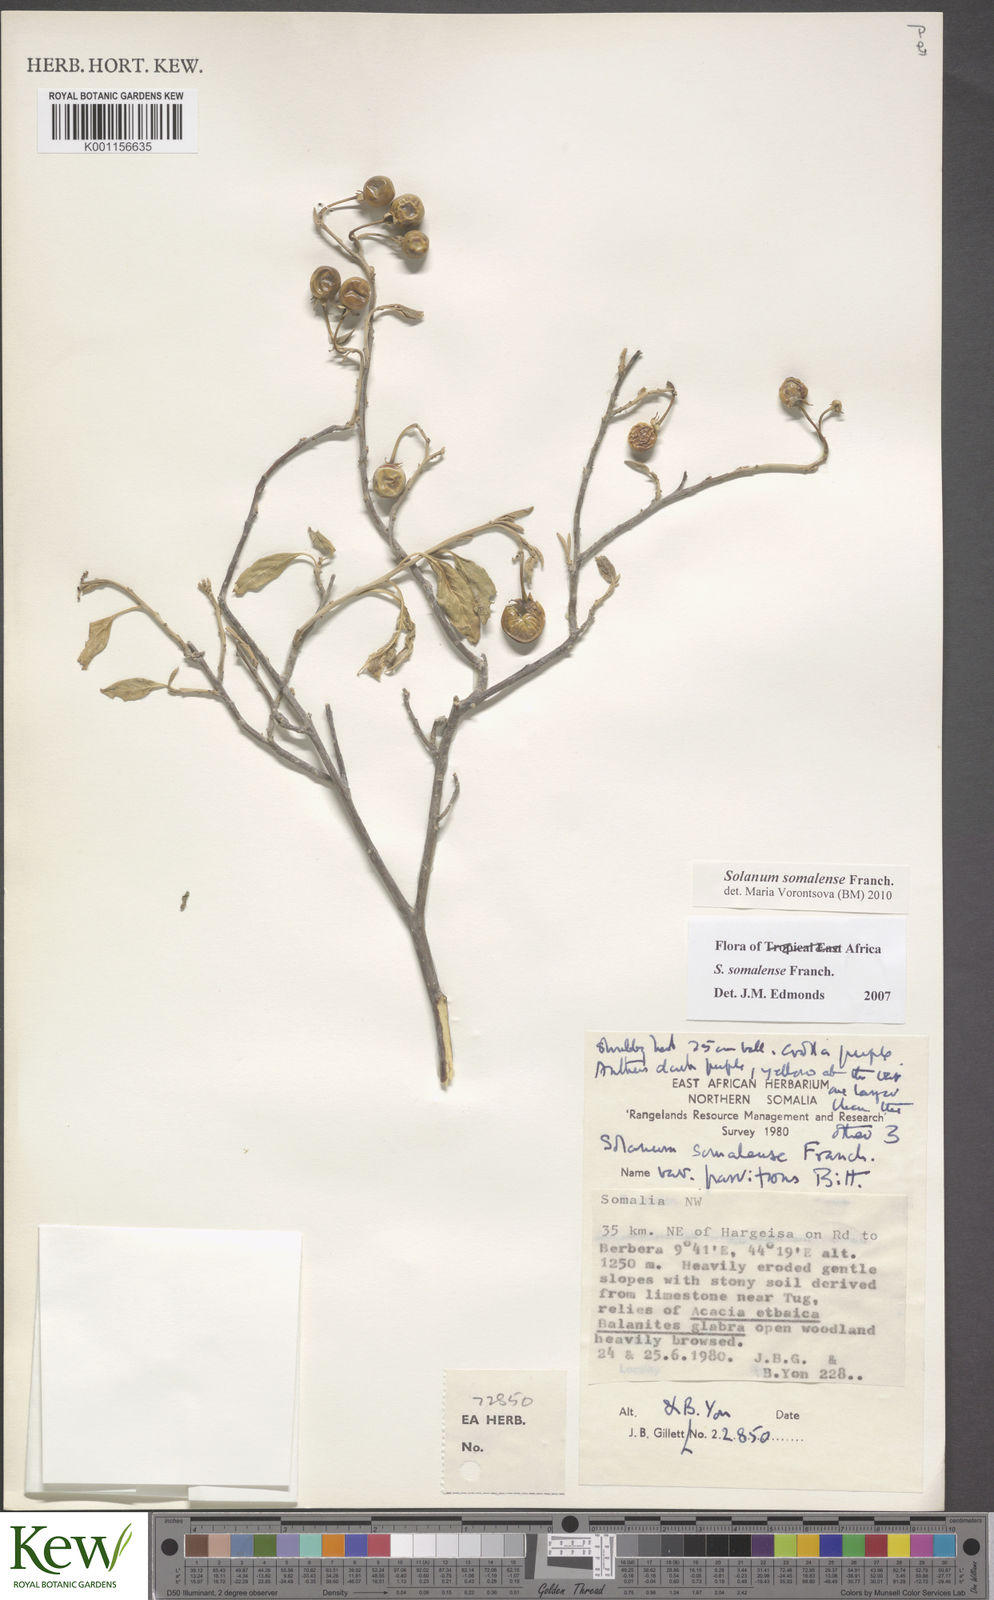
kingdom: Plantae
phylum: Tracheophyta
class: Magnoliopsida
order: Solanales
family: Solanaceae
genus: Solanum
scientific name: Solanum somalense
